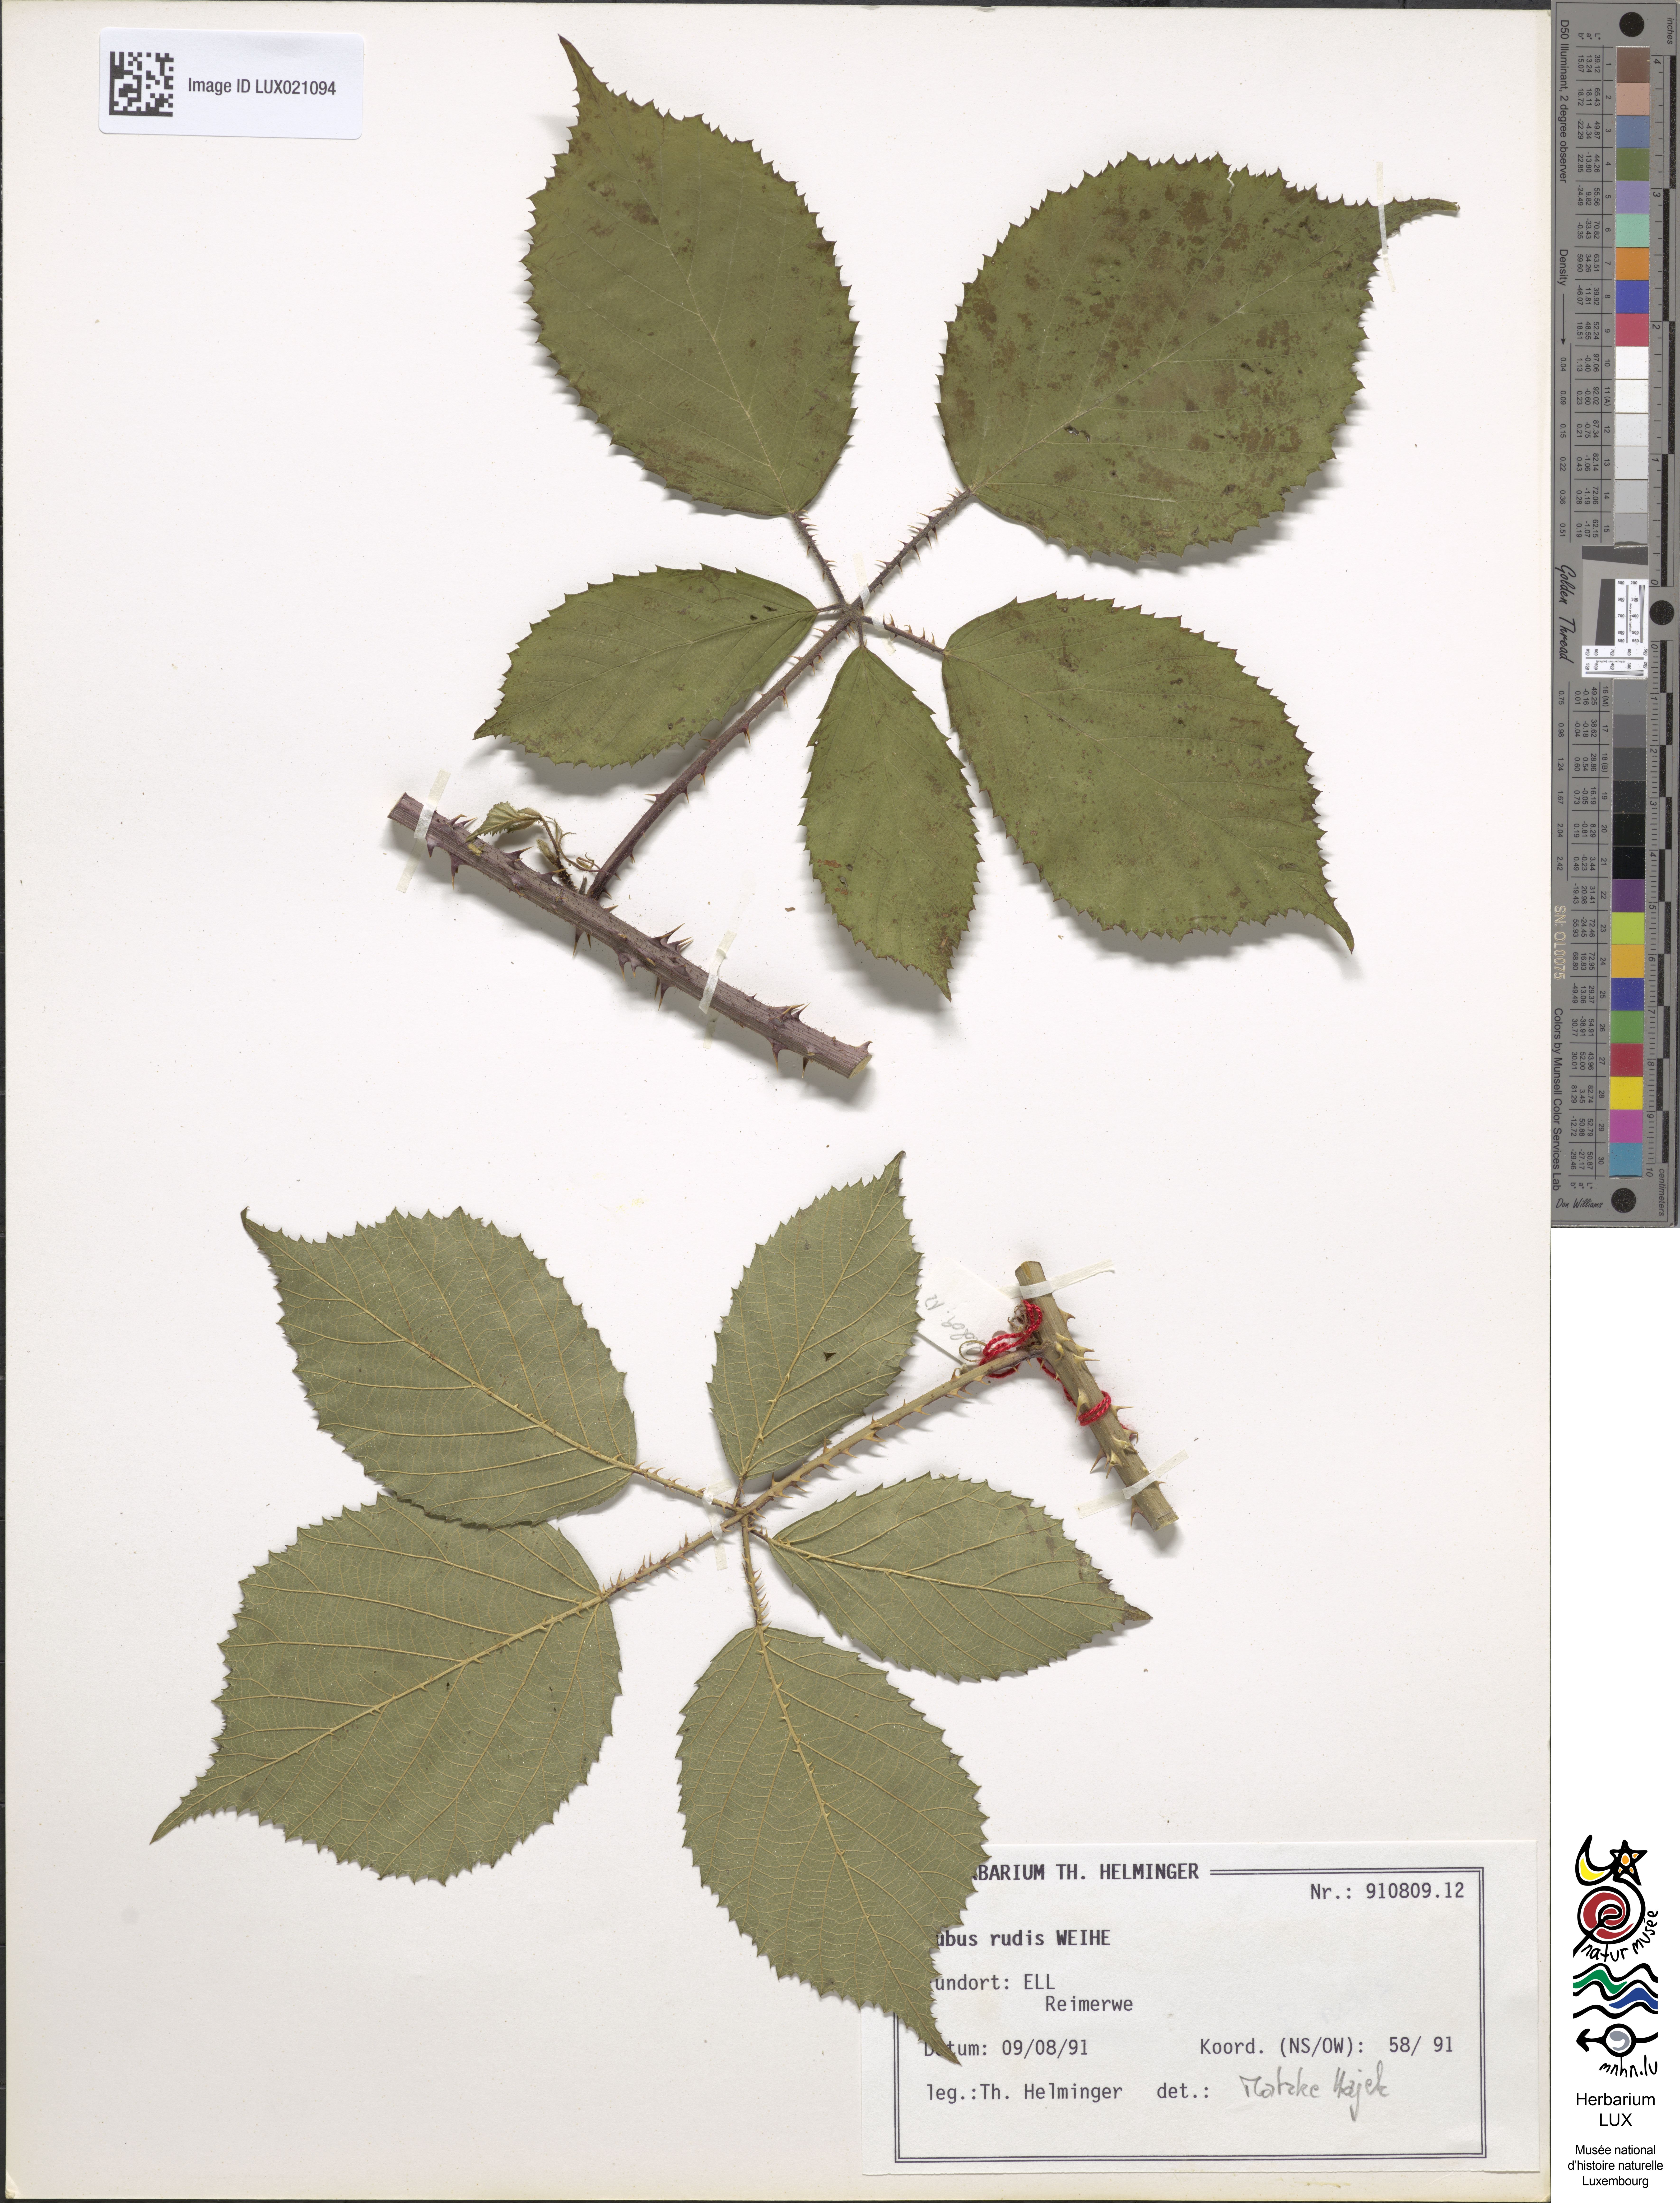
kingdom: Plantae
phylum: Tracheophyta
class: Magnoliopsida
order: Rosales
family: Rosaceae
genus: Rubus
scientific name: Rubus rudis
